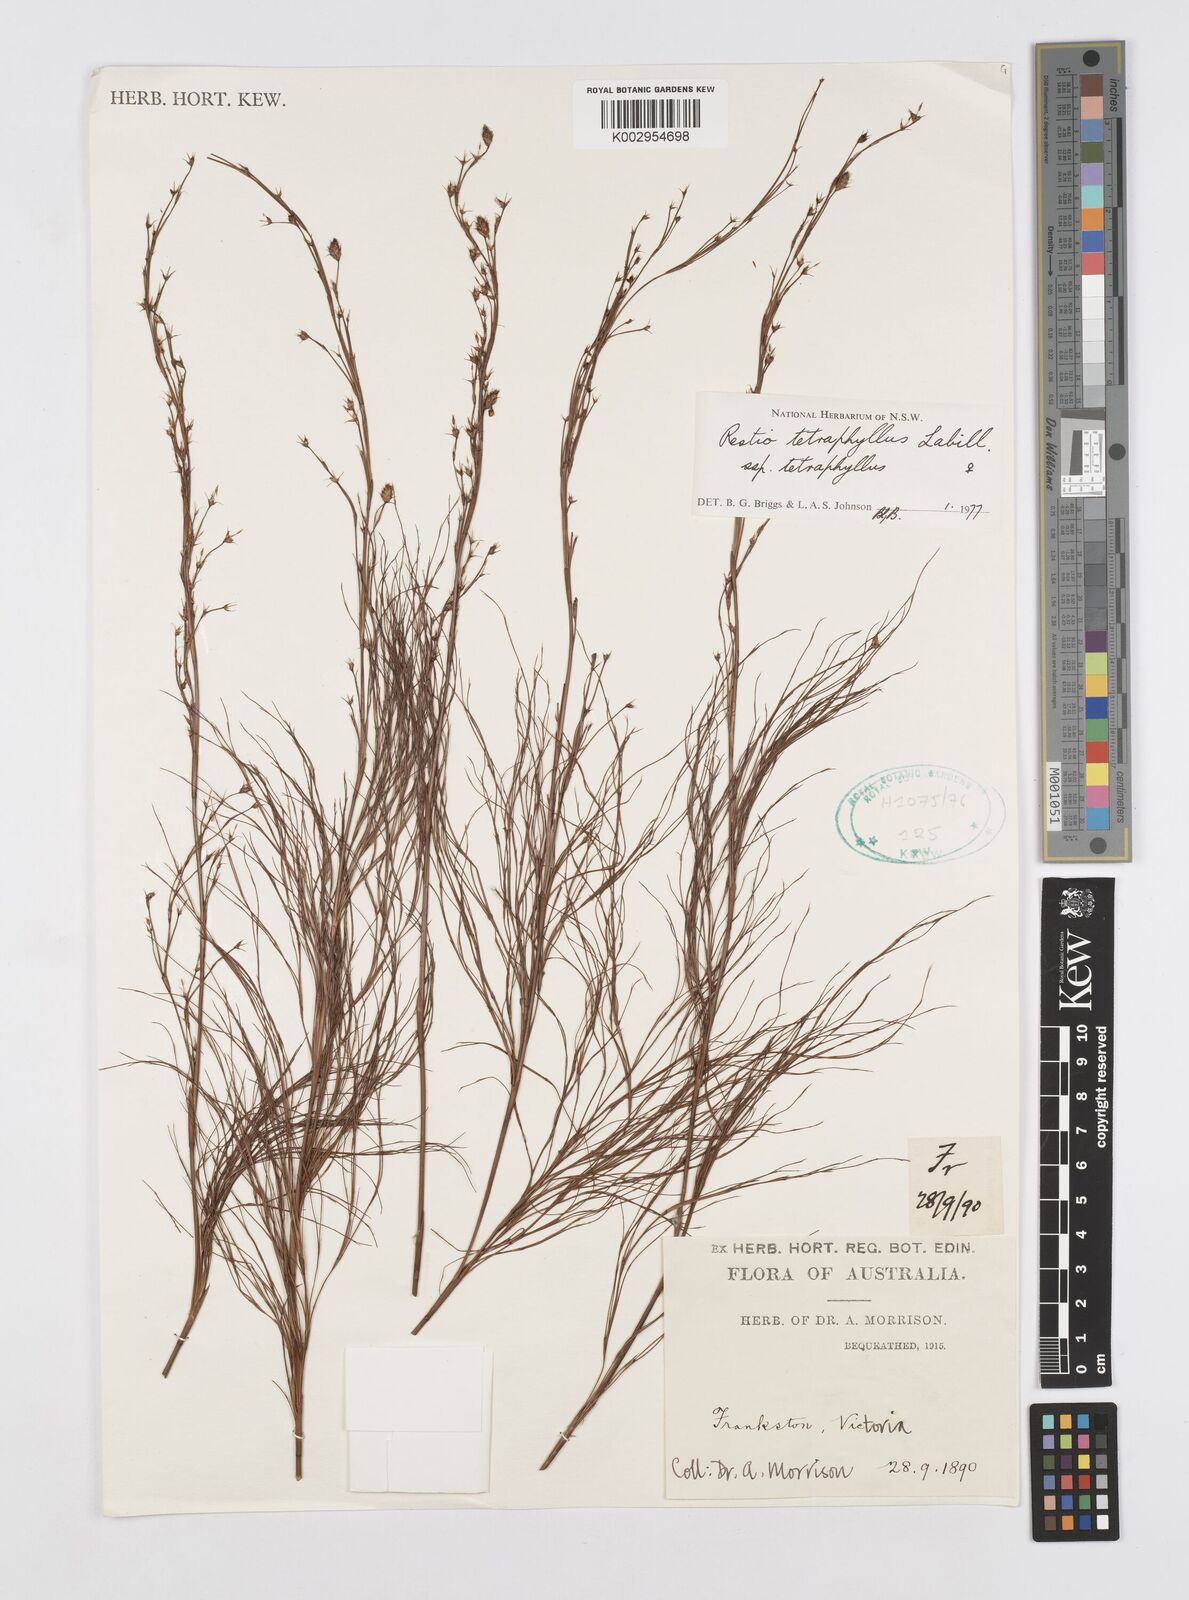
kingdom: Plantae
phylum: Tracheophyta
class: Liliopsida
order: Poales
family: Restionaceae
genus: Baloskion
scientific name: Baloskion tetraphyllum
